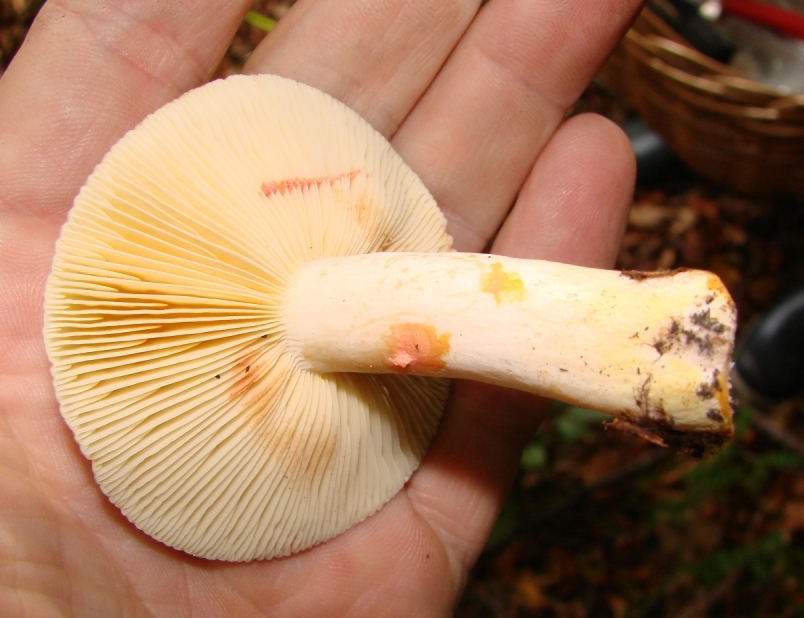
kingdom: Fungi
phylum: Basidiomycota
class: Agaricomycetes
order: Russulales
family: Russulaceae
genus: Lactarius
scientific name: Lactarius acris
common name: rosamælket mælkehat
